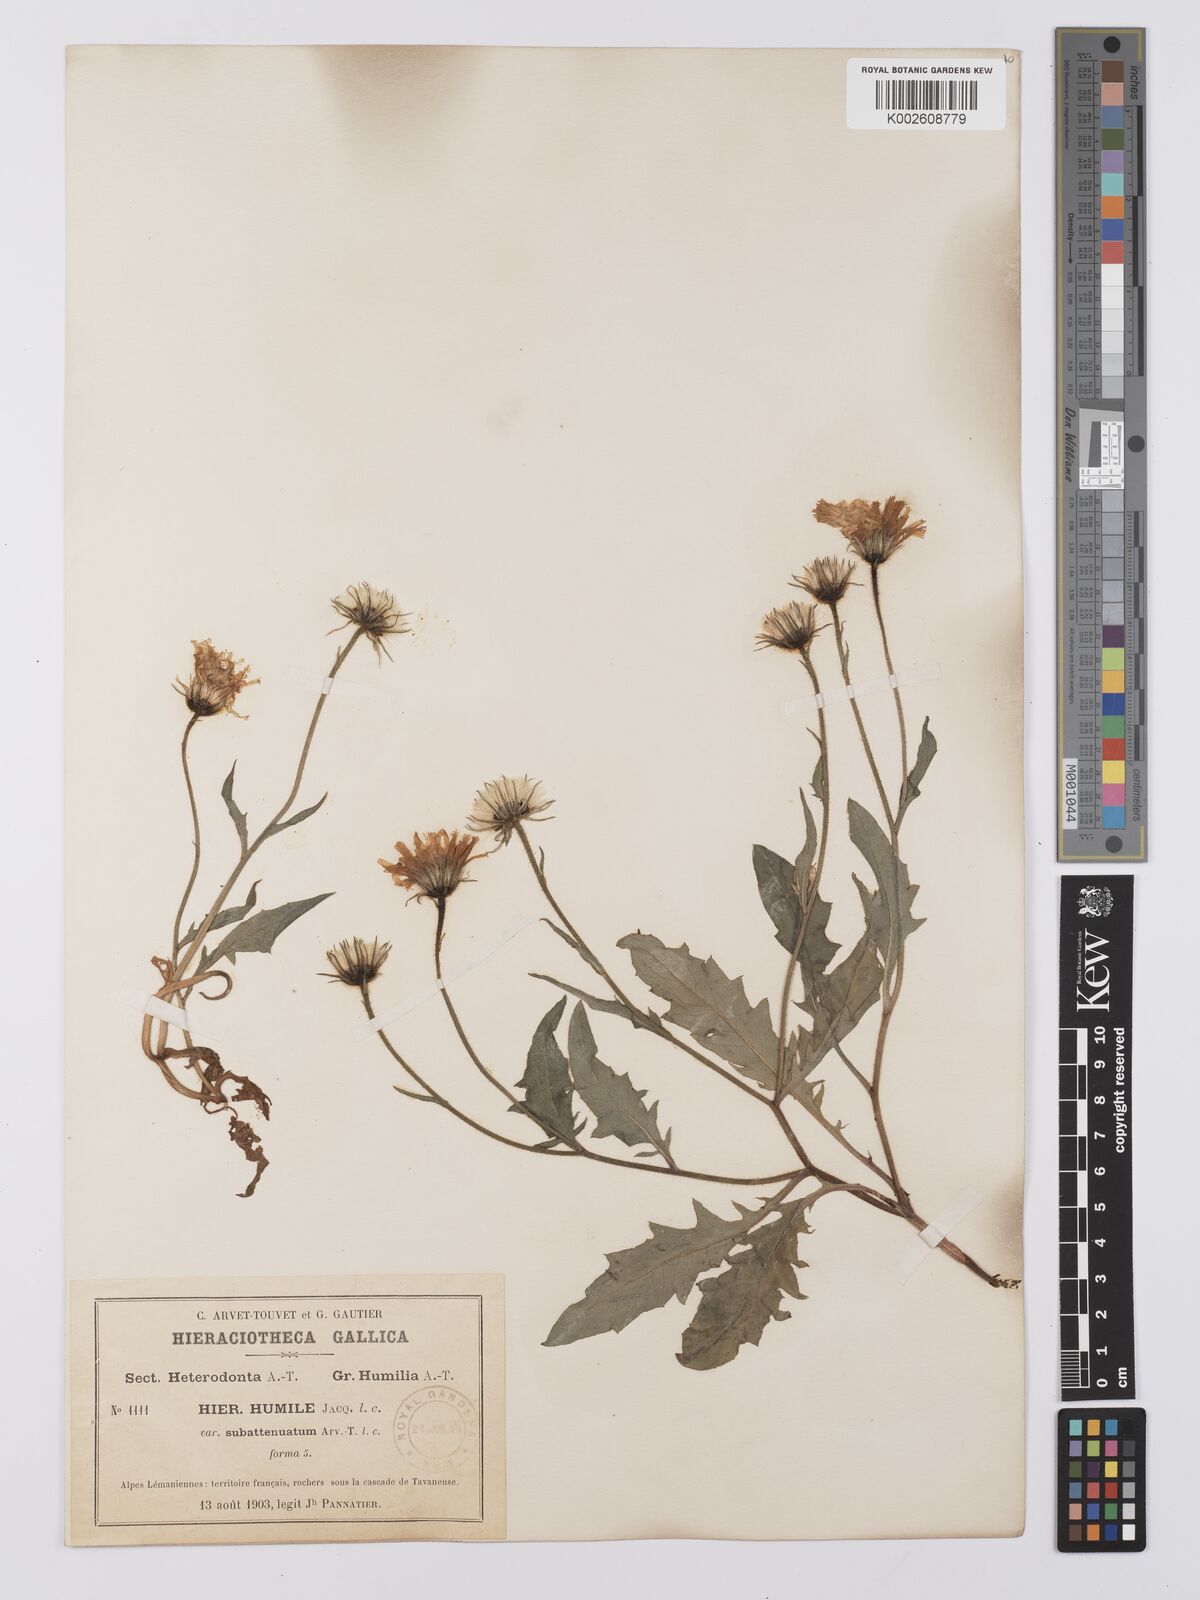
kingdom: Plantae
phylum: Tracheophyta
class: Magnoliopsida
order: Asterales
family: Asteraceae
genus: Hieracium
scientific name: Hieracium humile
